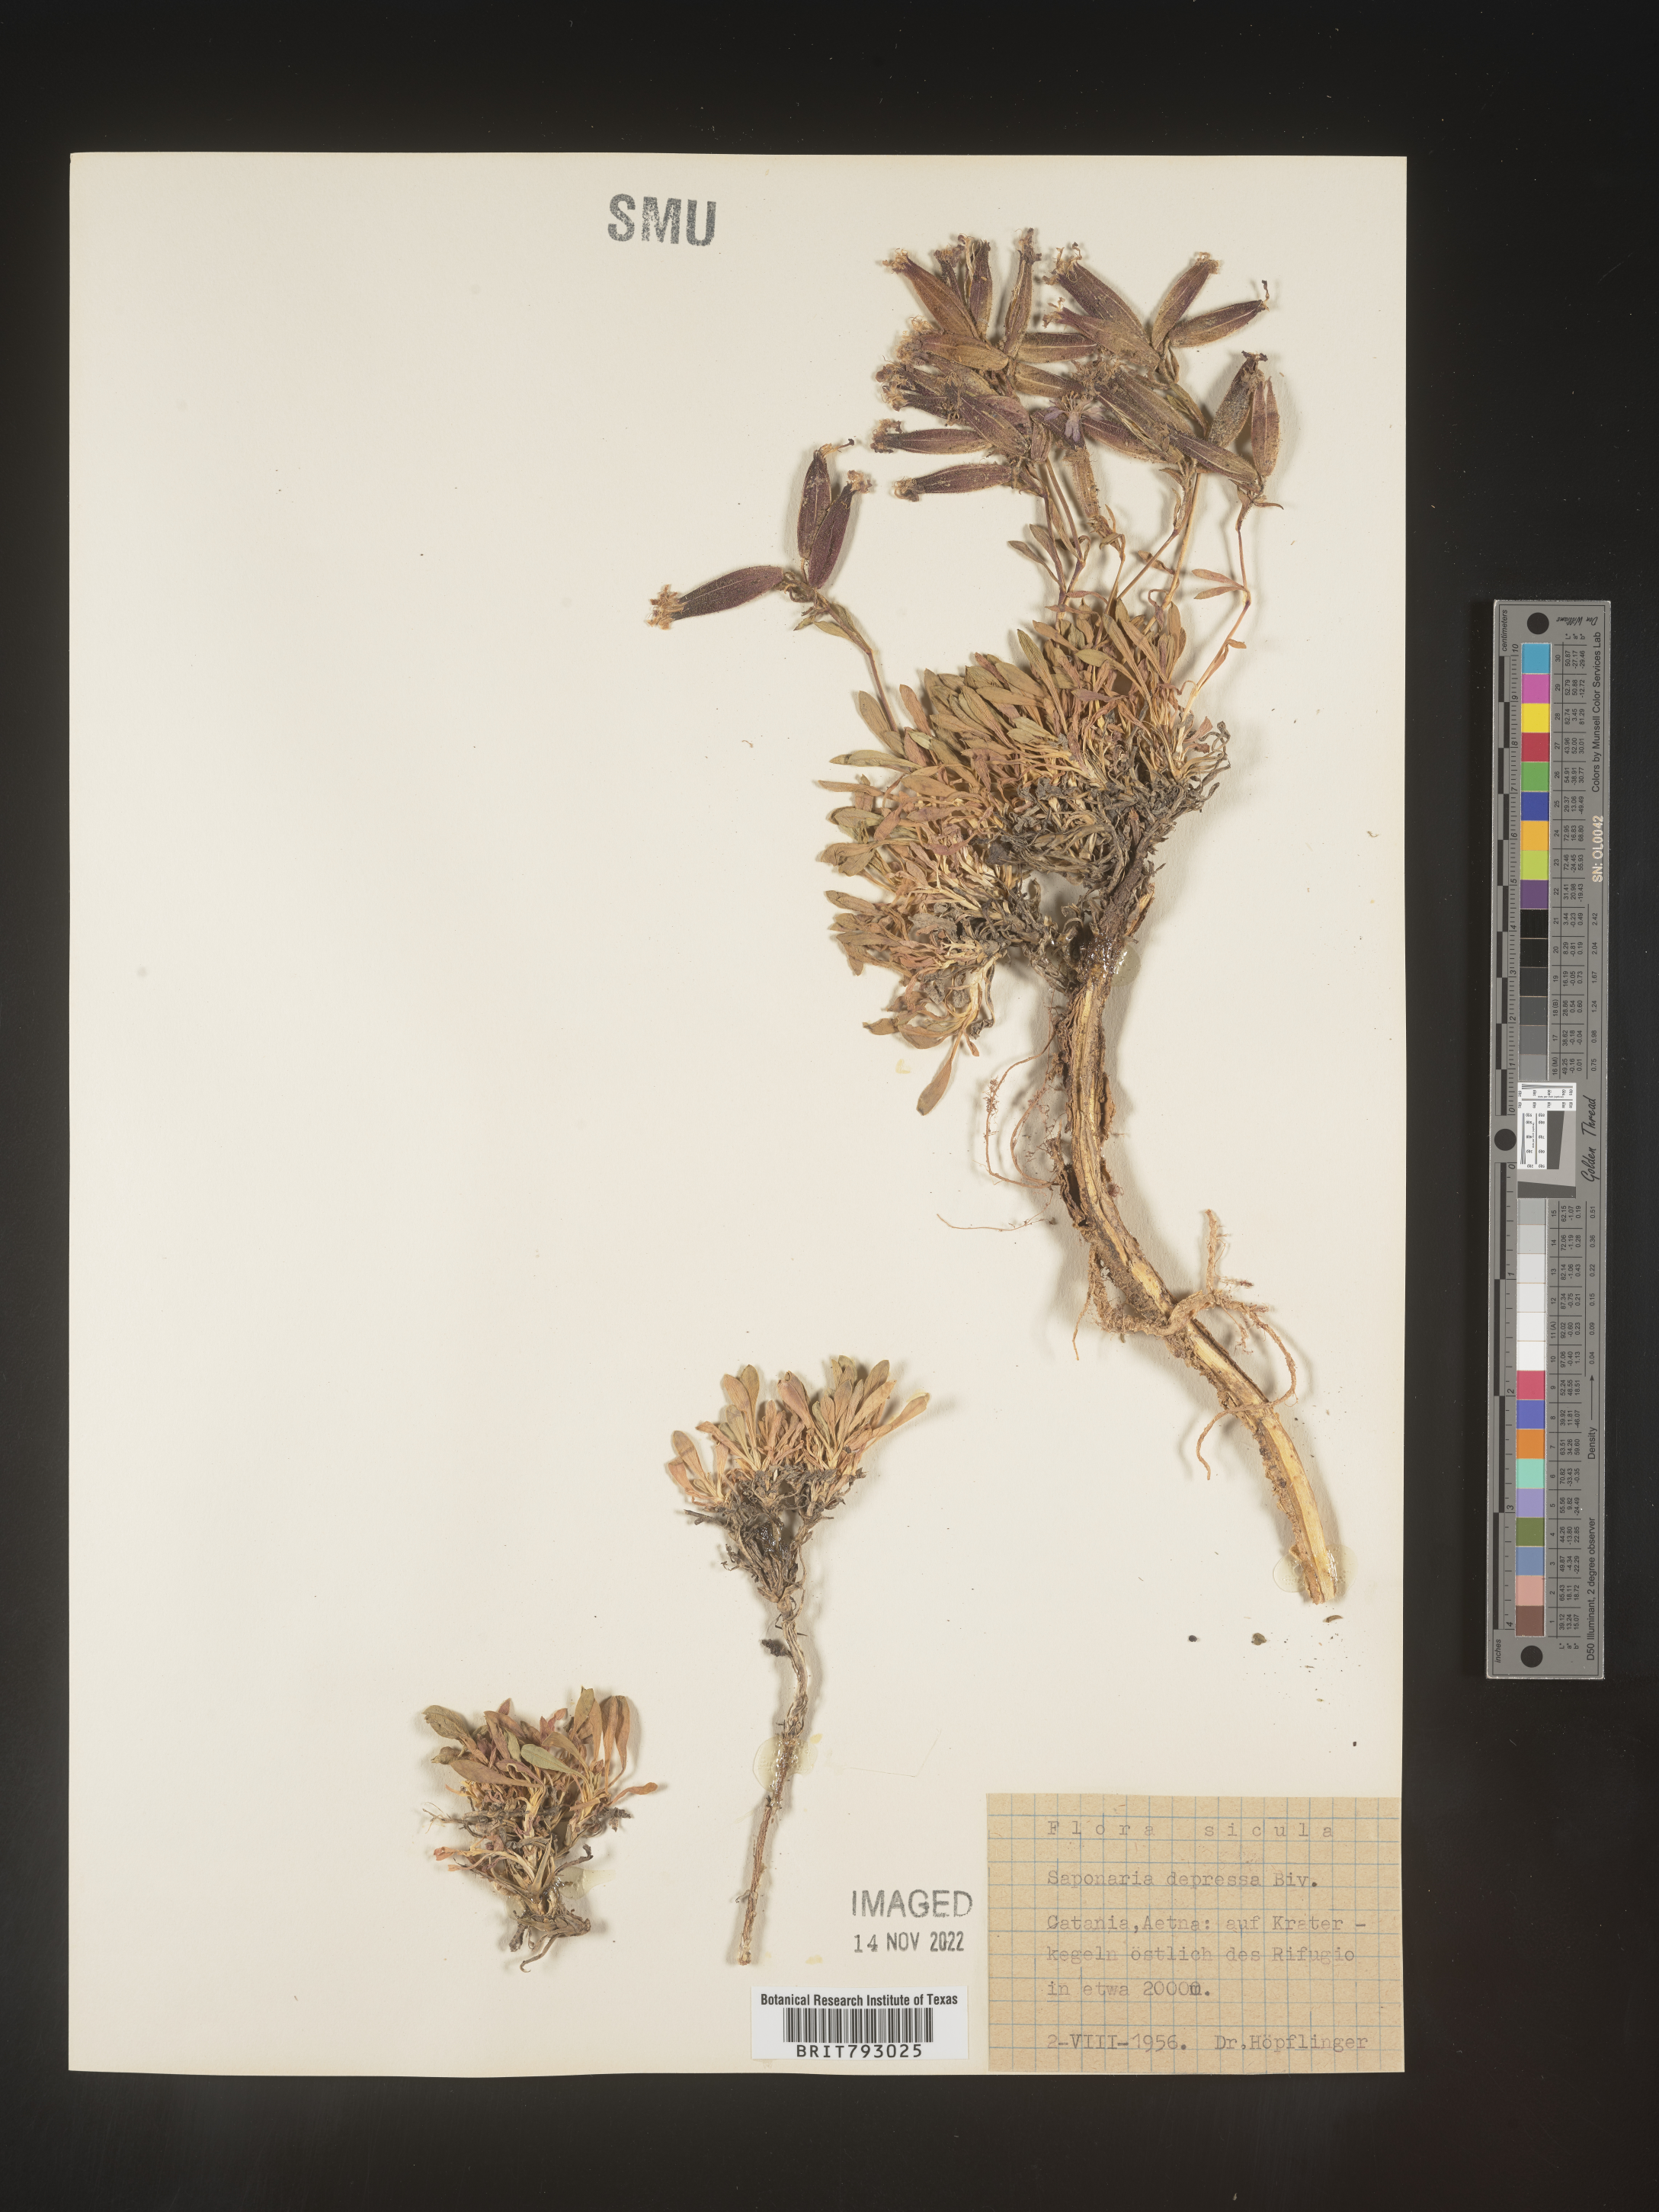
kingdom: Plantae
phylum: Tracheophyta
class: Magnoliopsida
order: Caryophyllales
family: Caryophyllaceae
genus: Saponaria
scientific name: Saponaria
